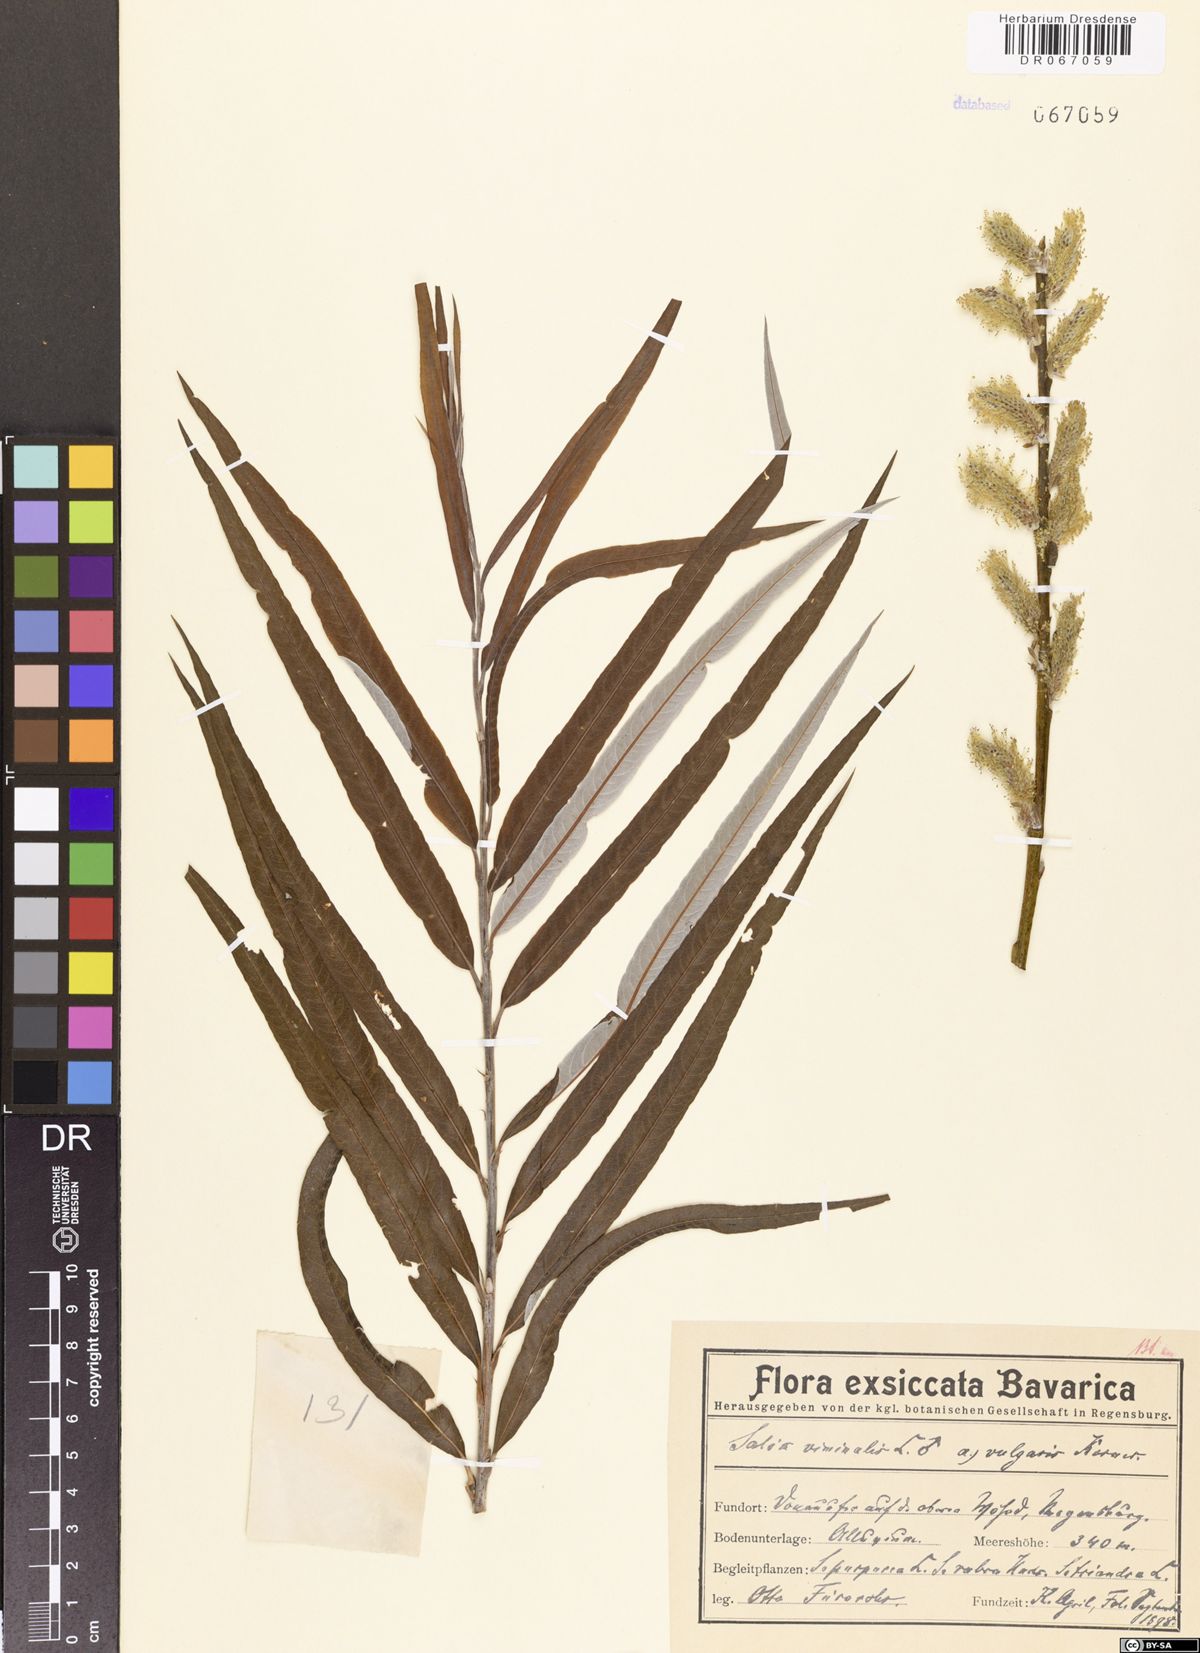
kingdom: Plantae
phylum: Tracheophyta
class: Magnoliopsida
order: Malpighiales
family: Salicaceae
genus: Salix
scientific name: Salix viminalis
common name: Osier
